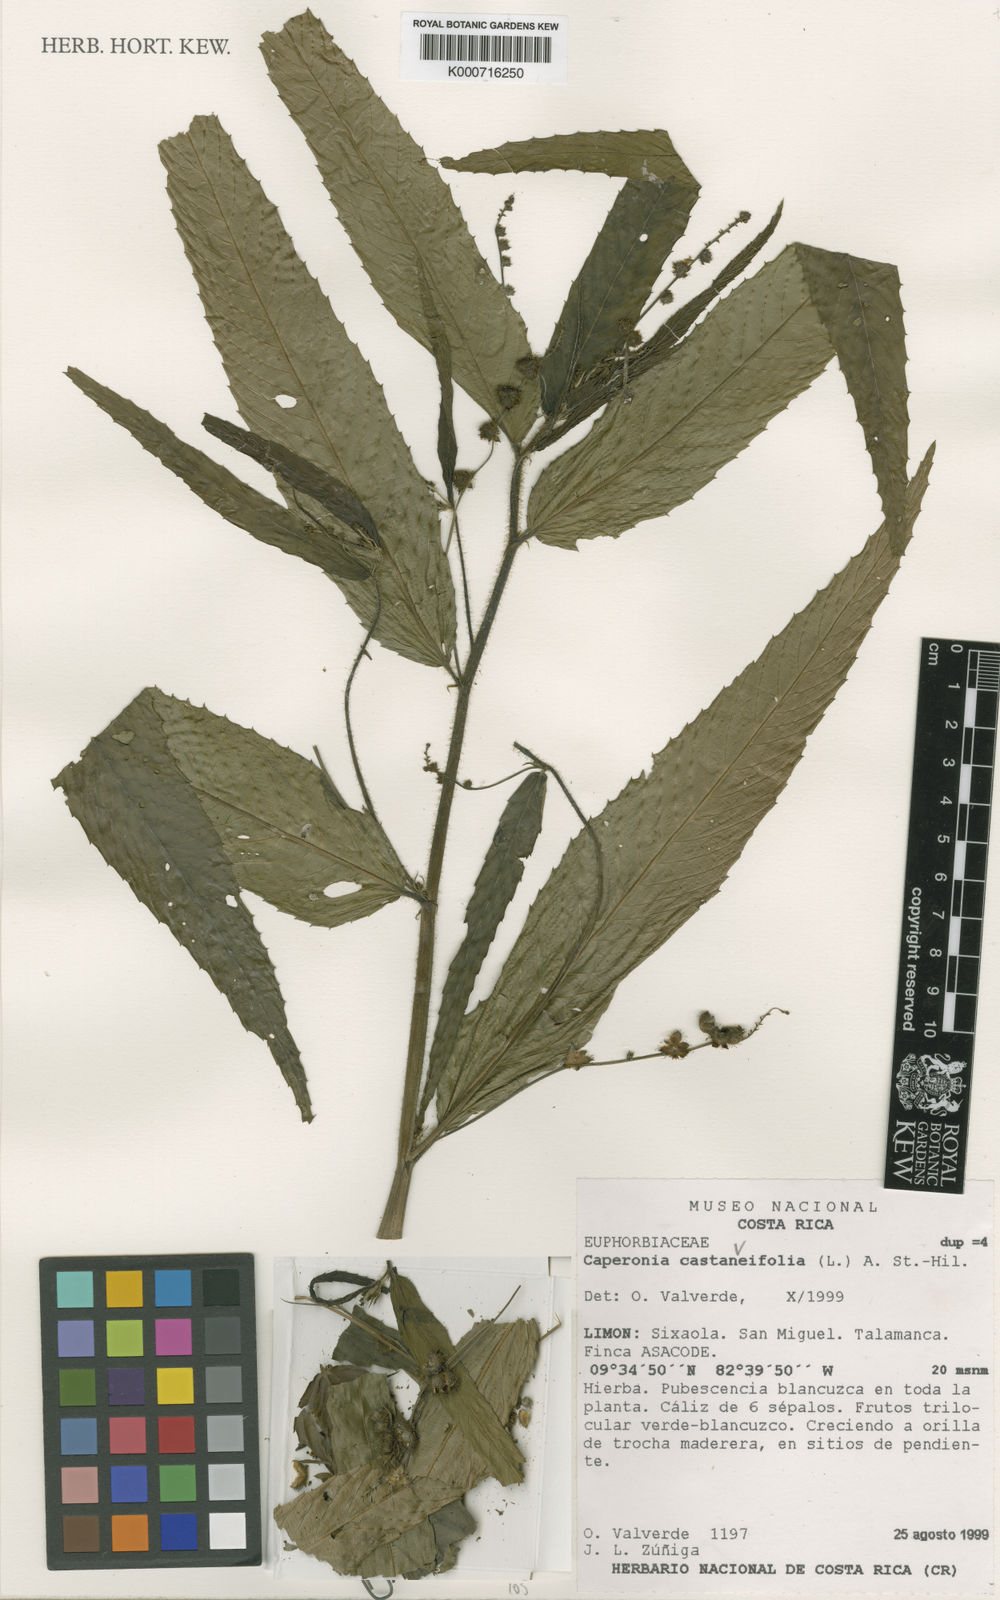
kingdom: Plantae
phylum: Tracheophyta
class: Magnoliopsida
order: Malpighiales
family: Euphorbiaceae
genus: Caperonia
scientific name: Caperonia castaneifolia
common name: Chestnutleaf false croton
